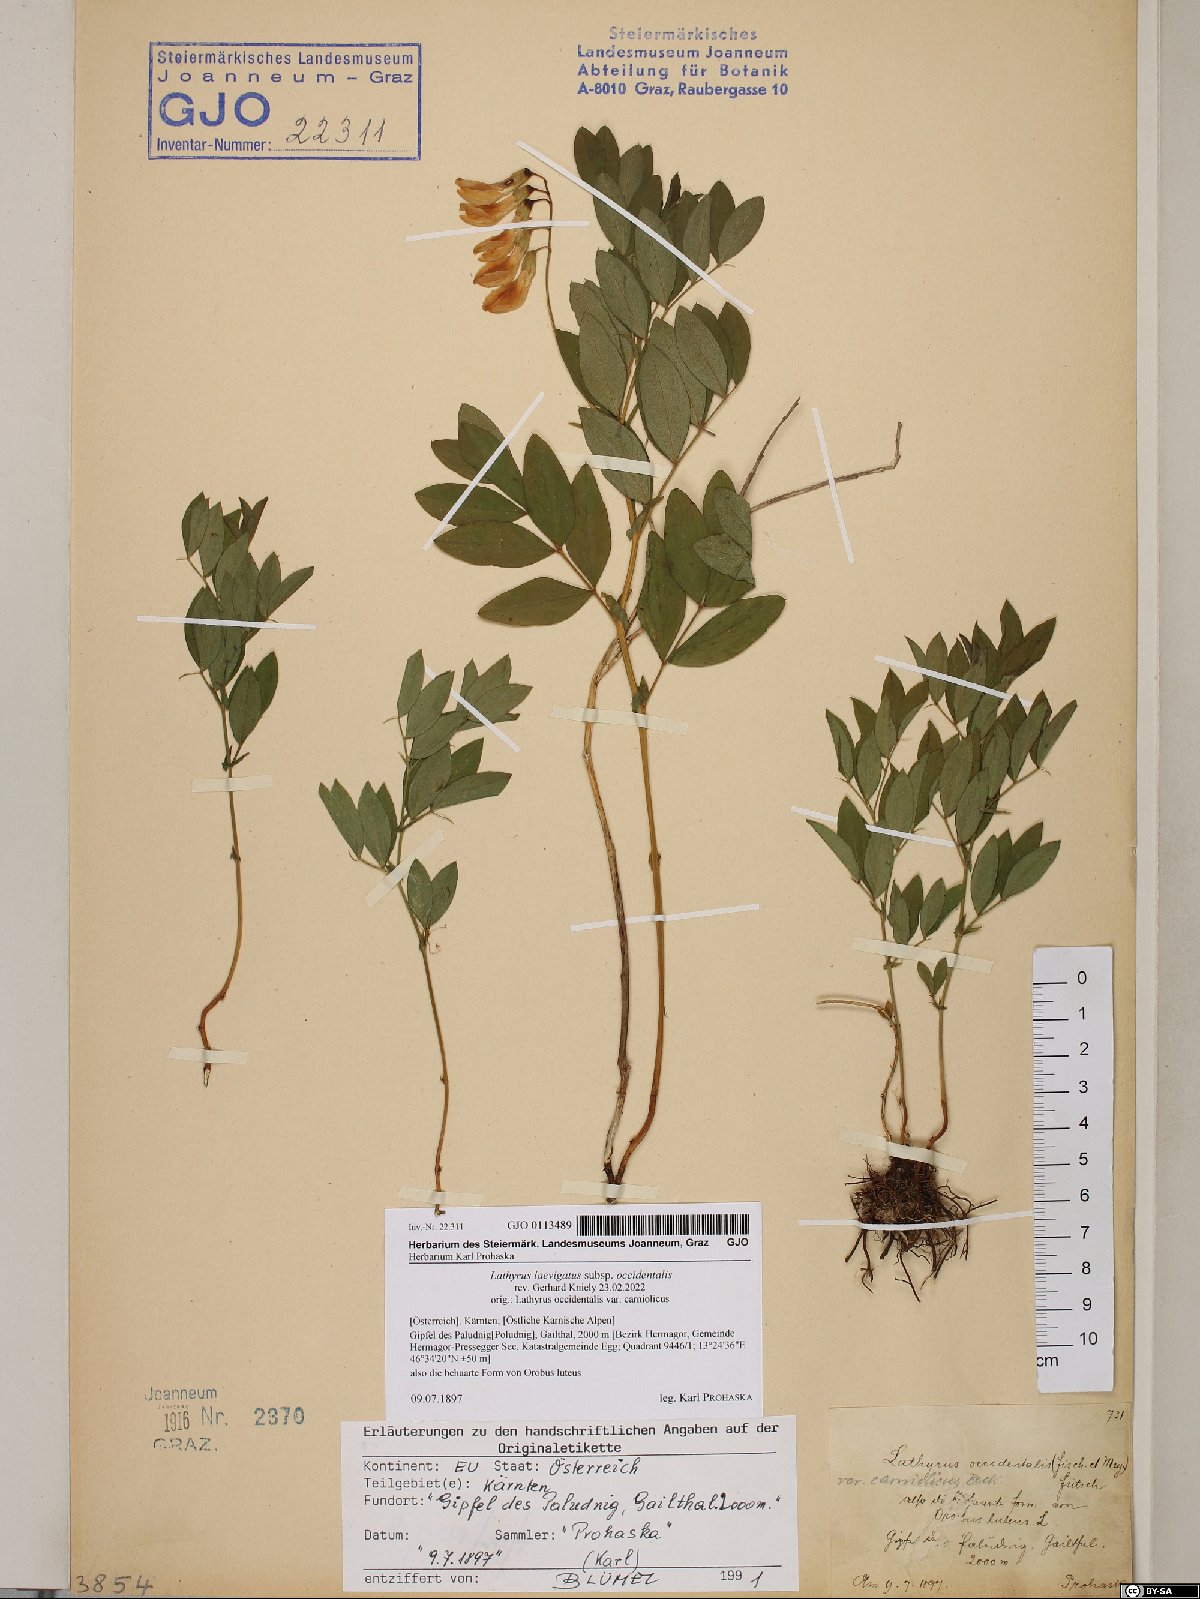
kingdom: Plantae
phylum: Tracheophyta
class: Magnoliopsida
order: Fabales
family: Fabaceae
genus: Lathyrus
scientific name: Lathyrus laevigatus
